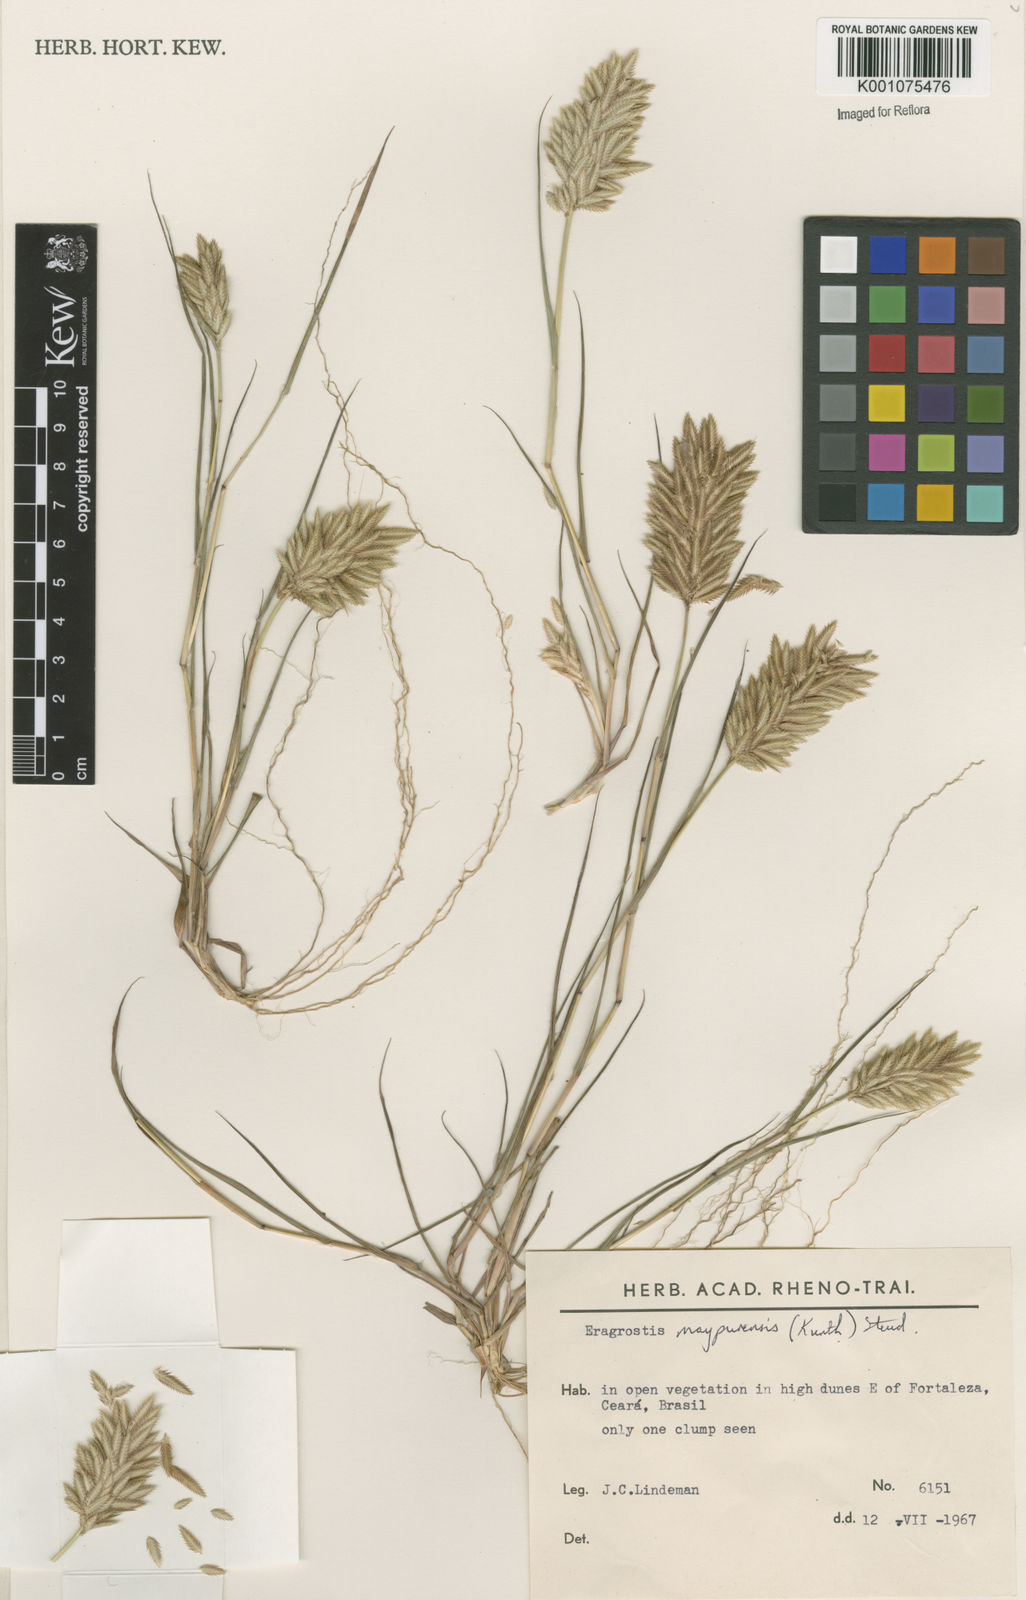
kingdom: Plantae
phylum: Tracheophyta
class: Liliopsida
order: Poales
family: Poaceae
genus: Eragrostis
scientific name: Eragrostis maypurensis
